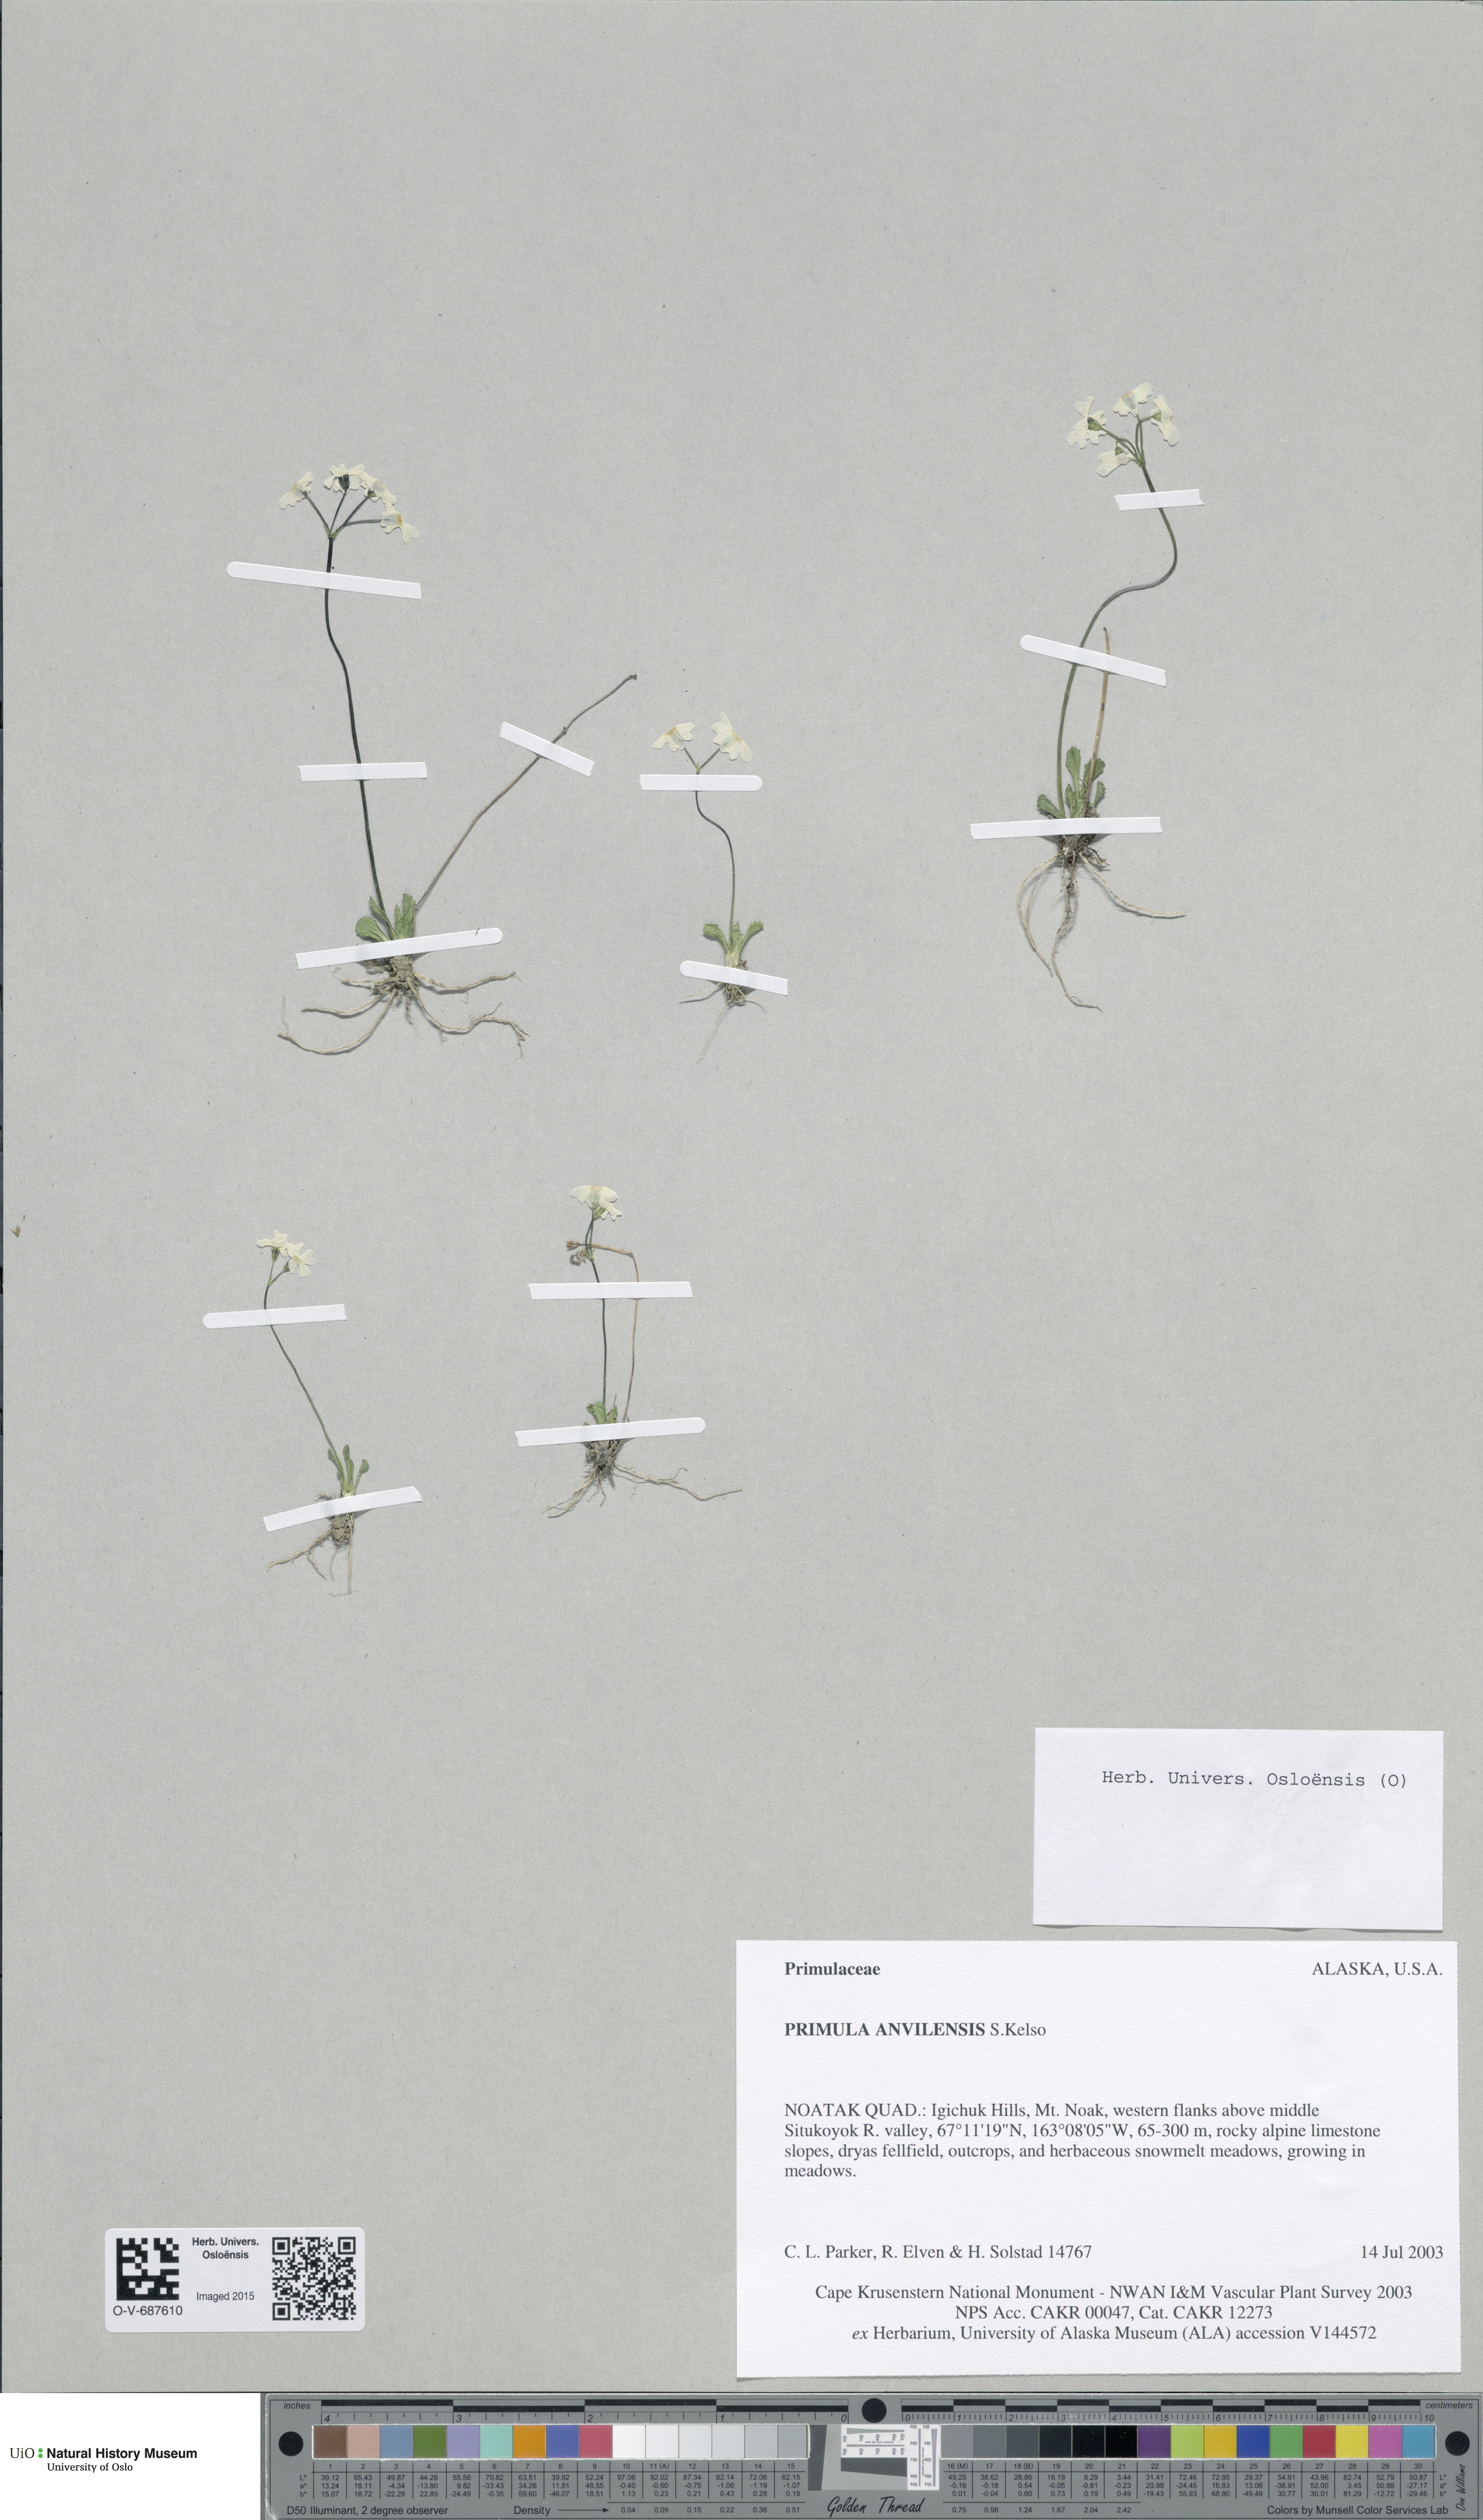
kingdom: Plantae
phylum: Tracheophyta
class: Magnoliopsida
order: Ericales
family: Primulaceae
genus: Primula
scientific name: Primula anvilensis
